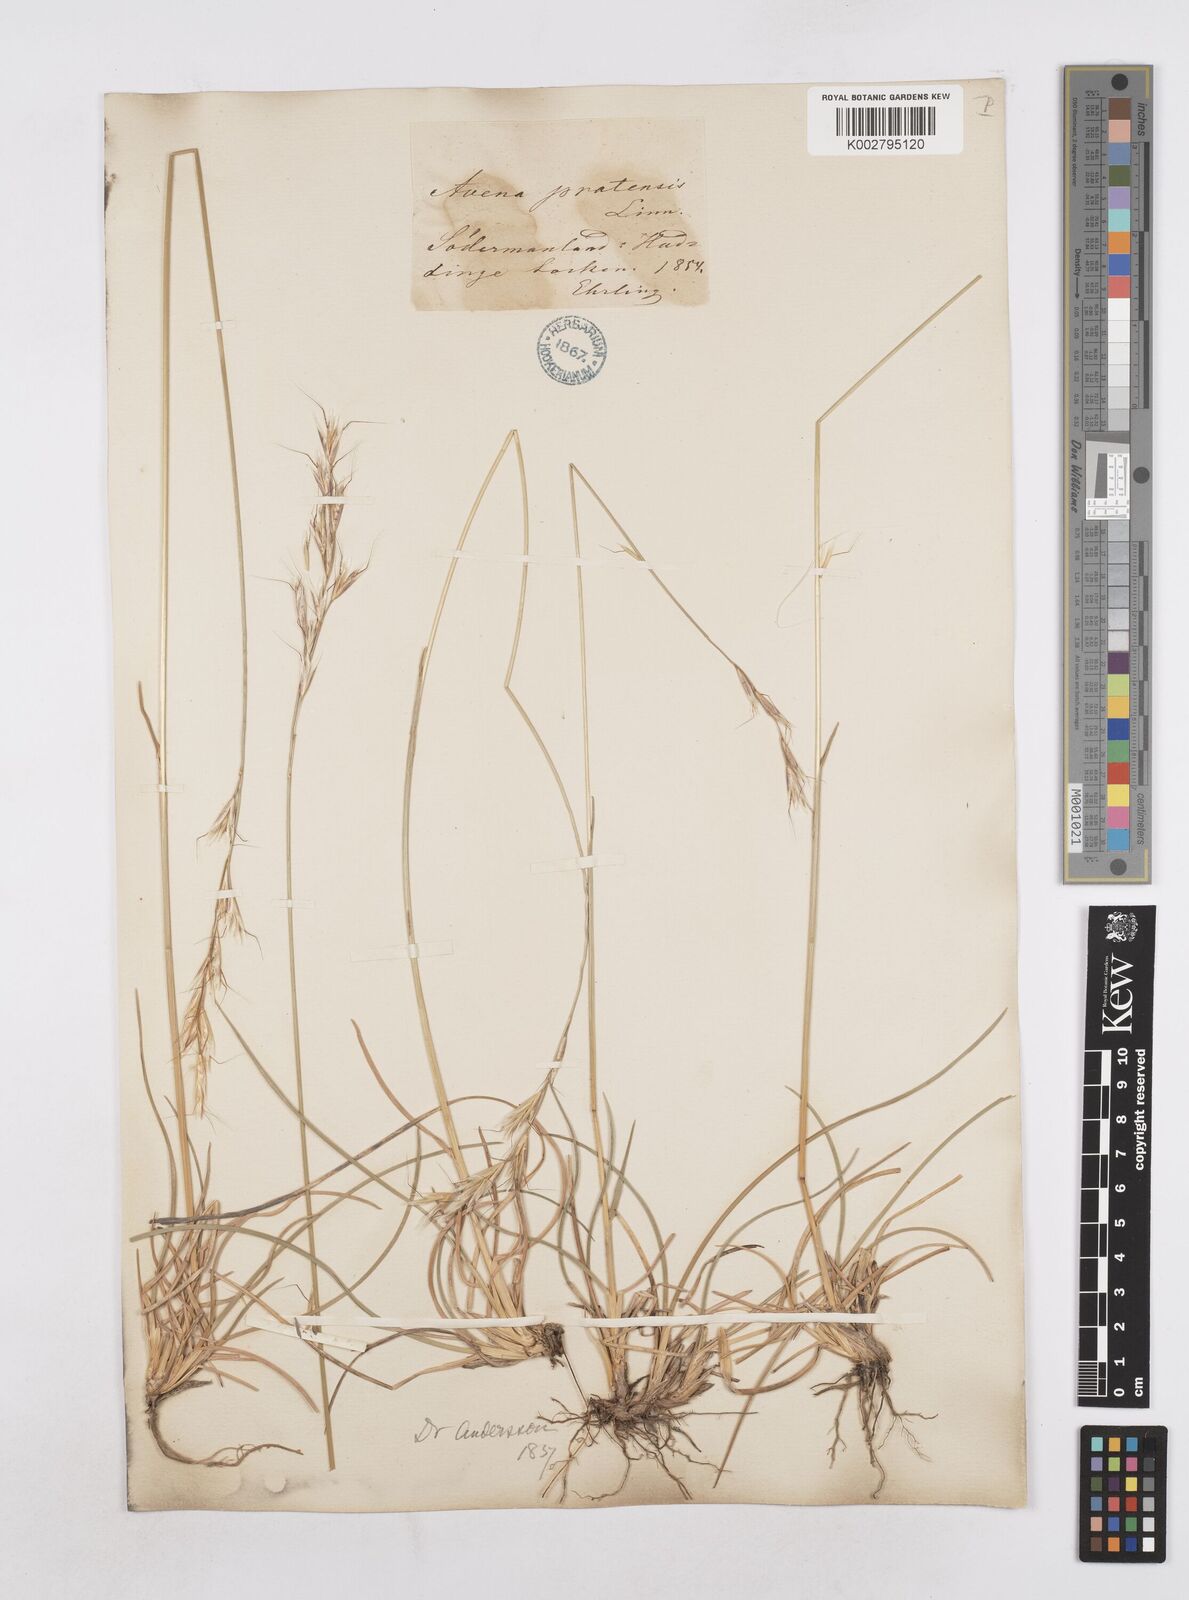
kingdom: Plantae
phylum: Tracheophyta
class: Liliopsida
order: Poales
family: Poaceae
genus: Helictochloa
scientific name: Helictochloa pratensis
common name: Meadow oat grass
